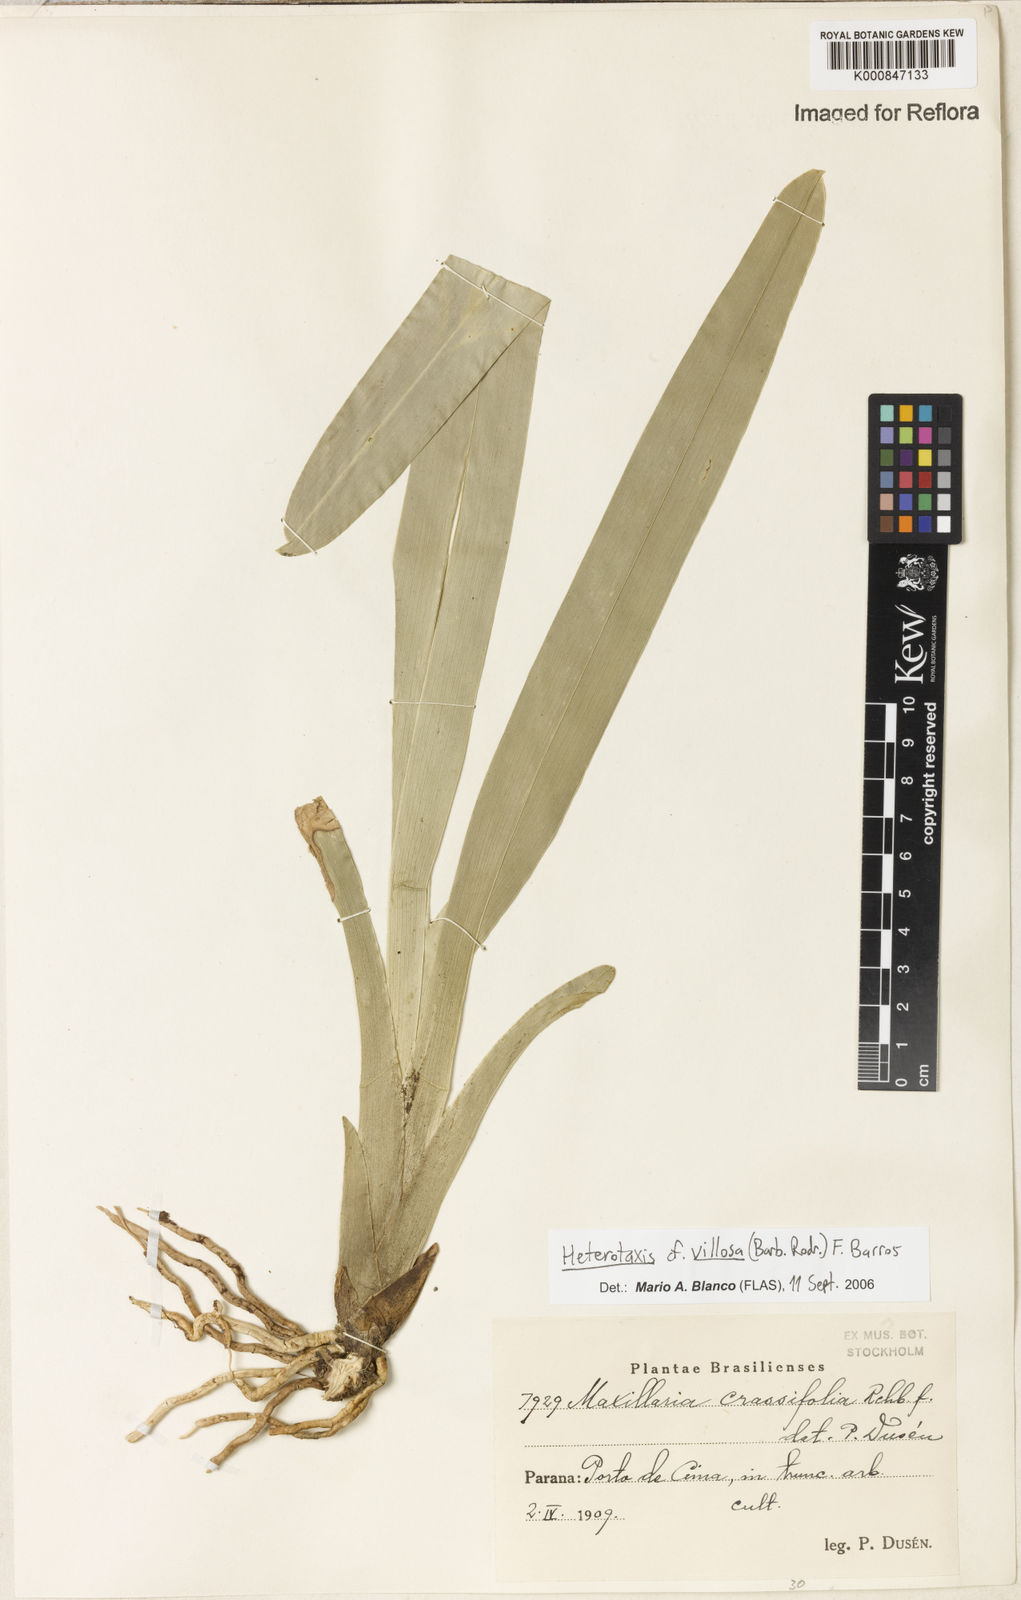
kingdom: Plantae
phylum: Tracheophyta
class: Liliopsida
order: Asparagales
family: Orchidaceae
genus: Maxillaria
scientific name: Maxillaria villosa
